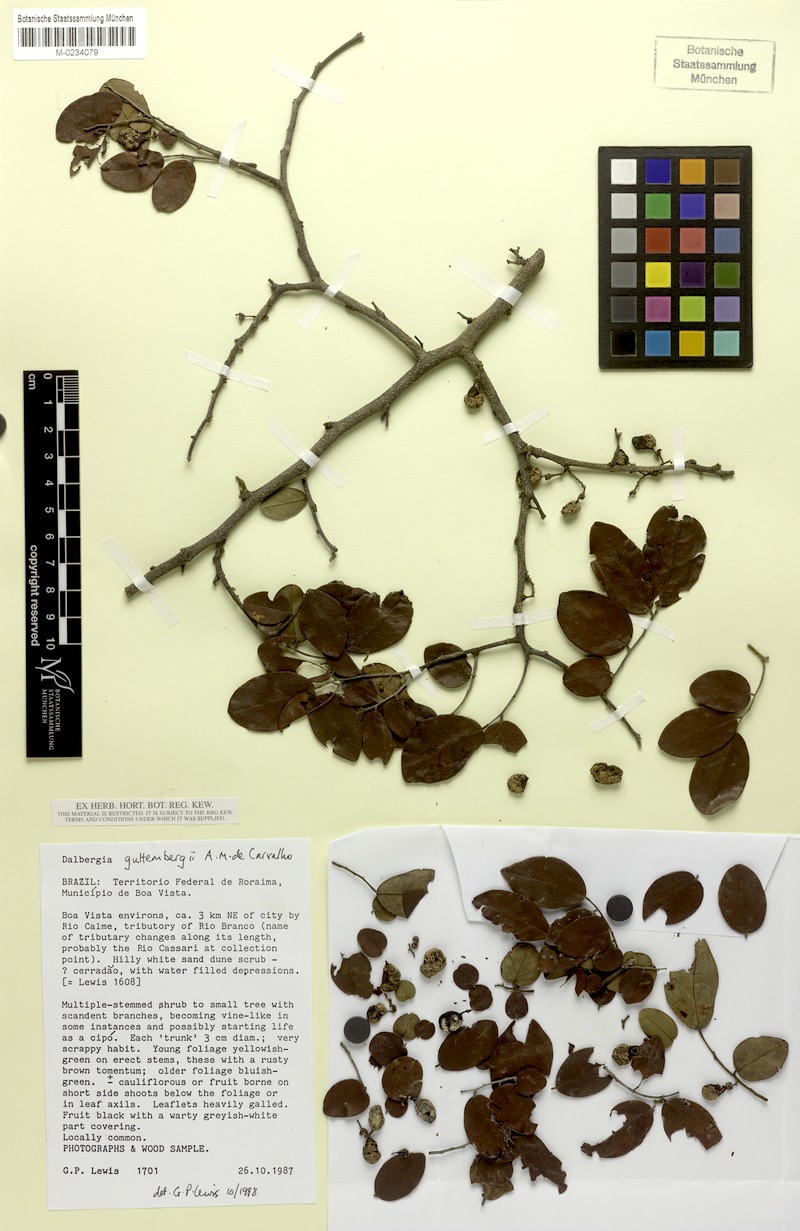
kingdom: Plantae
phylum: Tracheophyta
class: Magnoliopsida
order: Fabales
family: Fabaceae
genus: Dalbergia
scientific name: Dalbergia guttembergii
